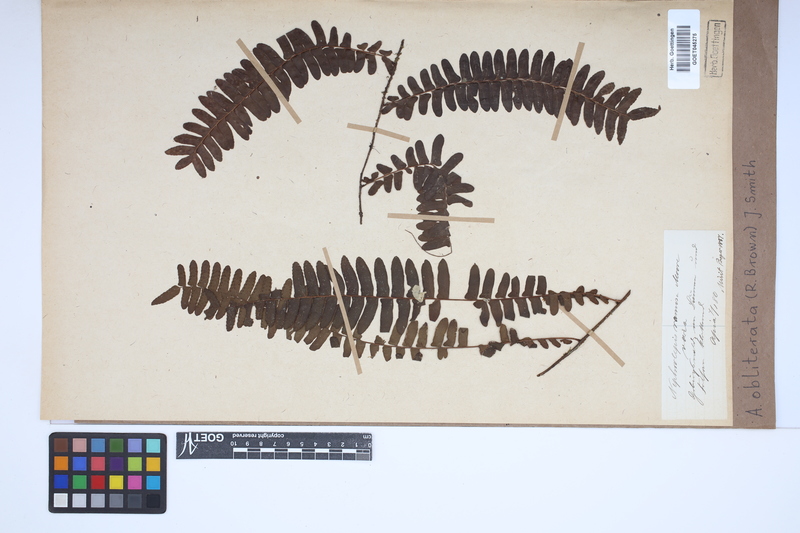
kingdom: Plantae
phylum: Tracheophyta
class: Polypodiopsida
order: Polypodiales
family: Nephrolepidaceae
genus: Nephrolepis
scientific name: Nephrolepis obliterata
